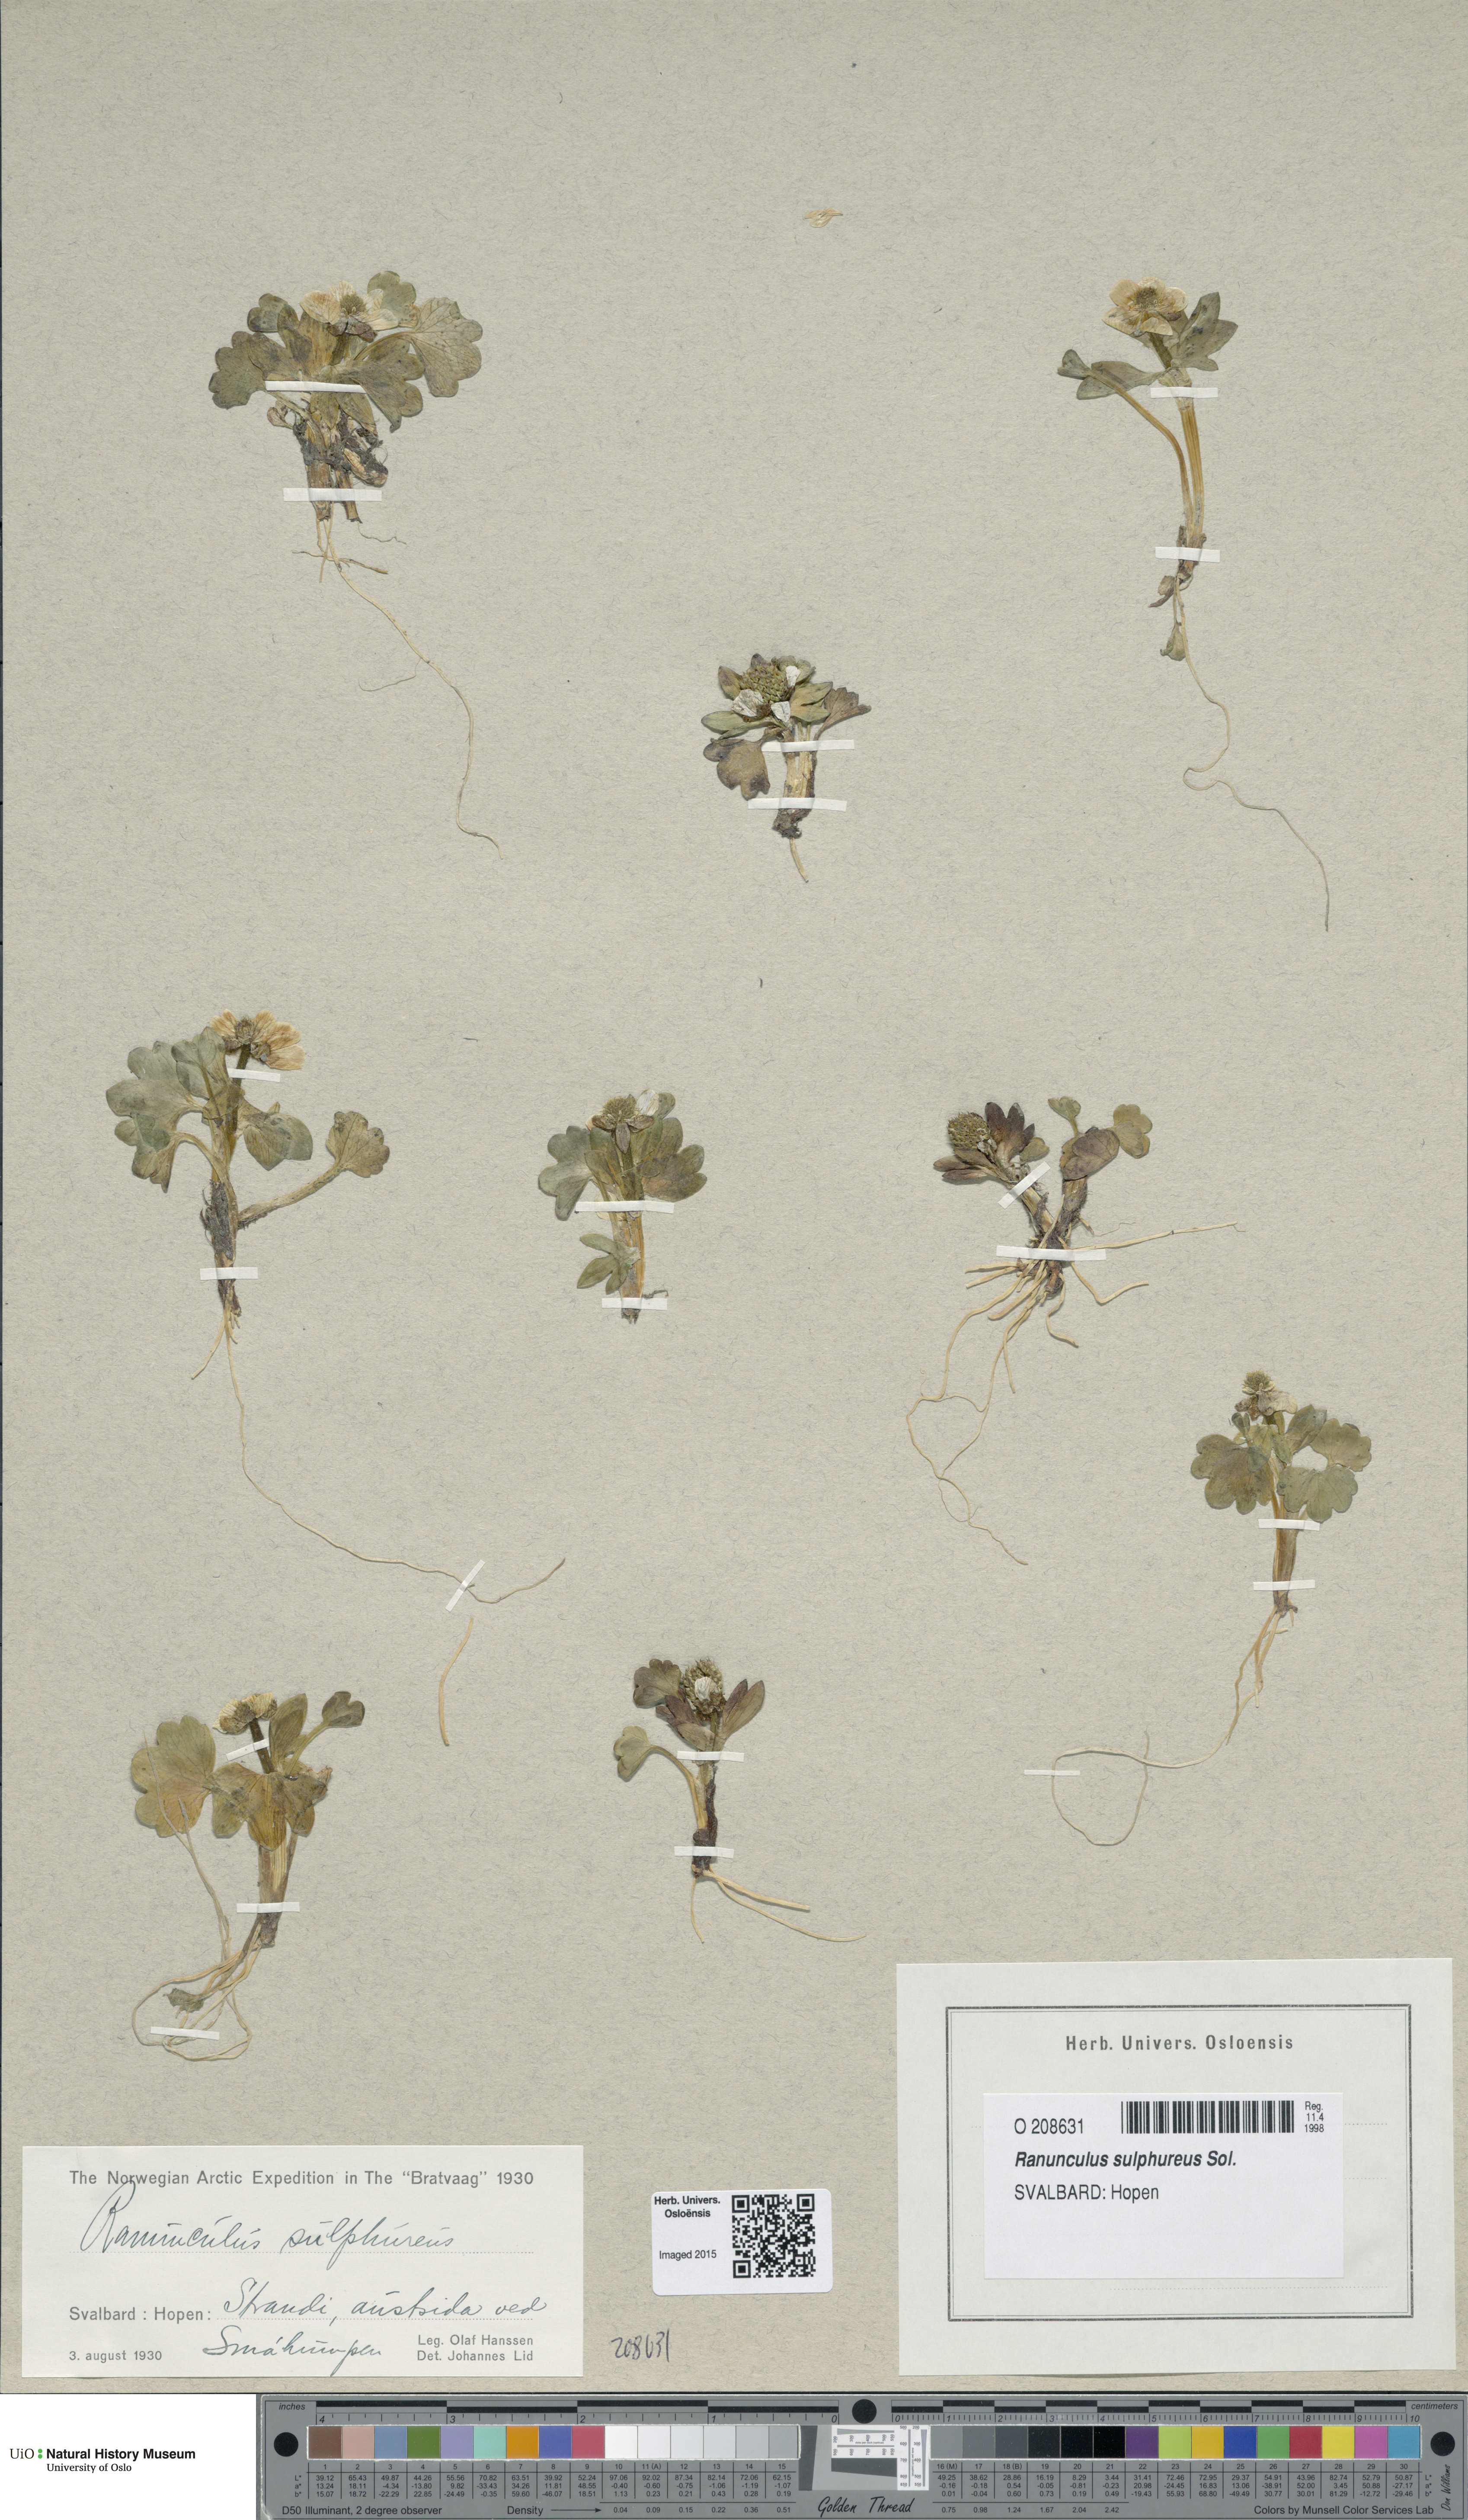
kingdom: Plantae
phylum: Tracheophyta
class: Magnoliopsida
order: Ranunculales
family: Ranunculaceae
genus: Ranunculus
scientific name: Ranunculus sulphureus
